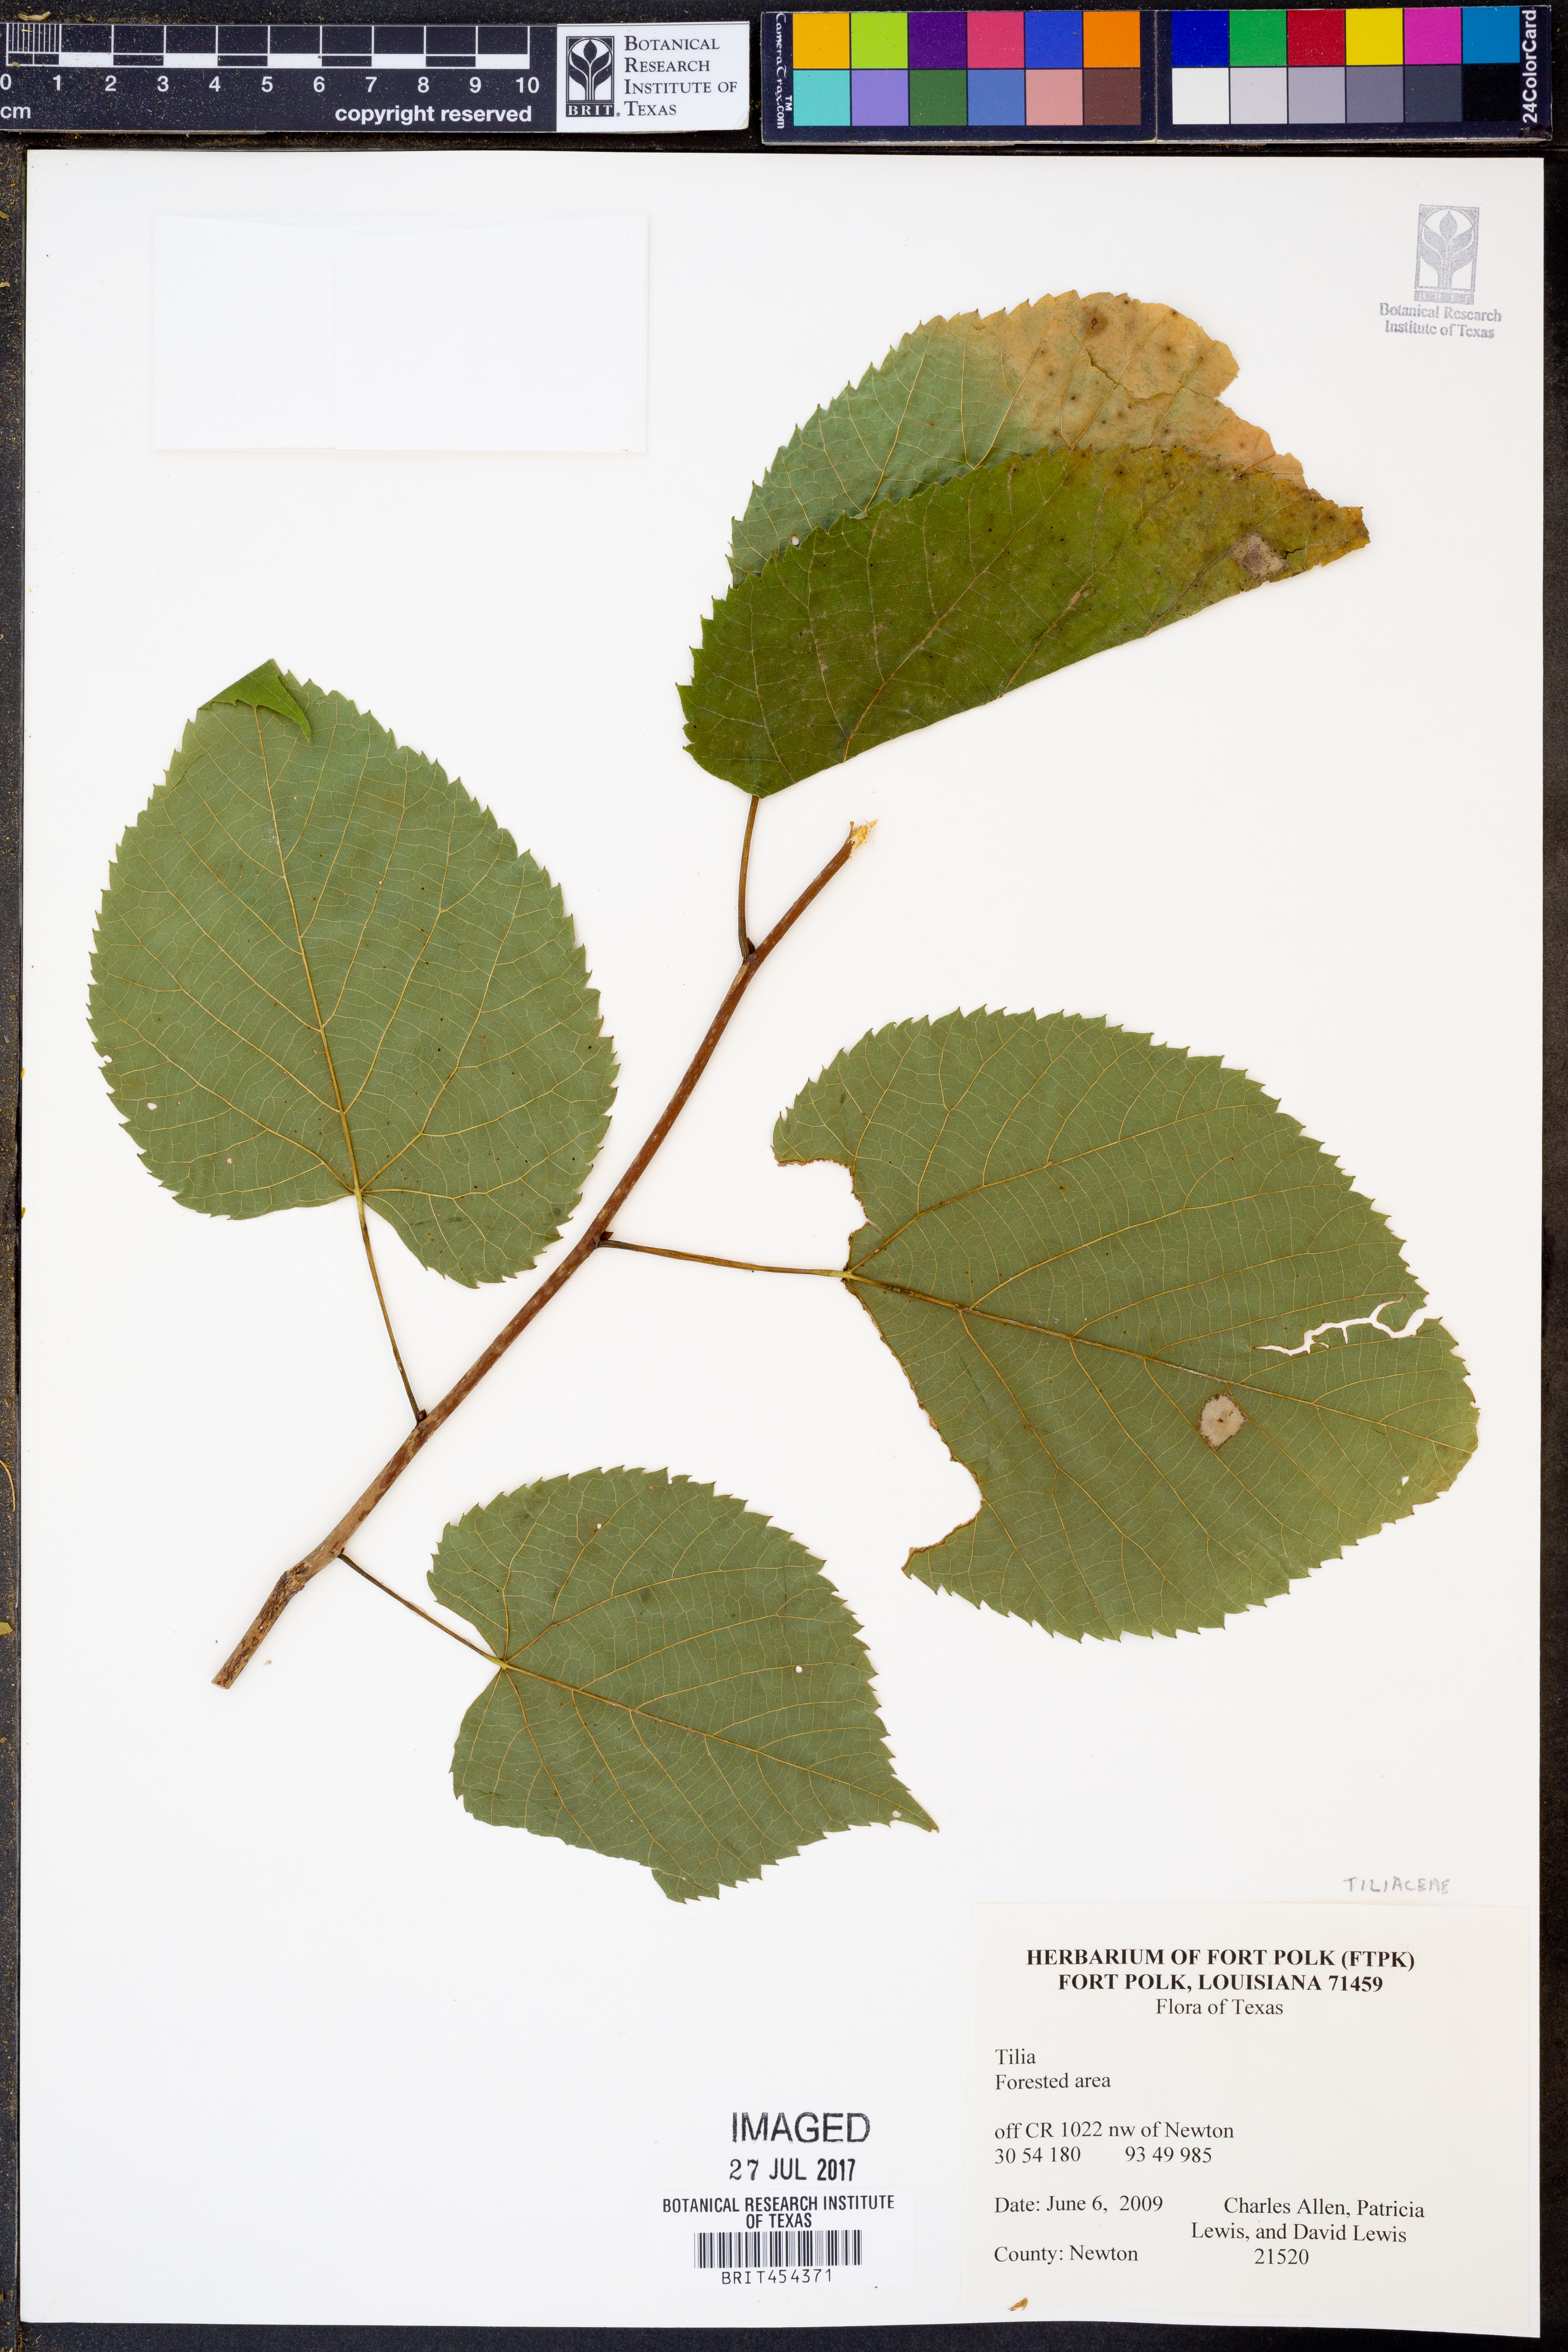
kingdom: Plantae
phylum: Tracheophyta
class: Magnoliopsida
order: Malvales
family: Malvaceae
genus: Tilia
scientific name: Tilia
